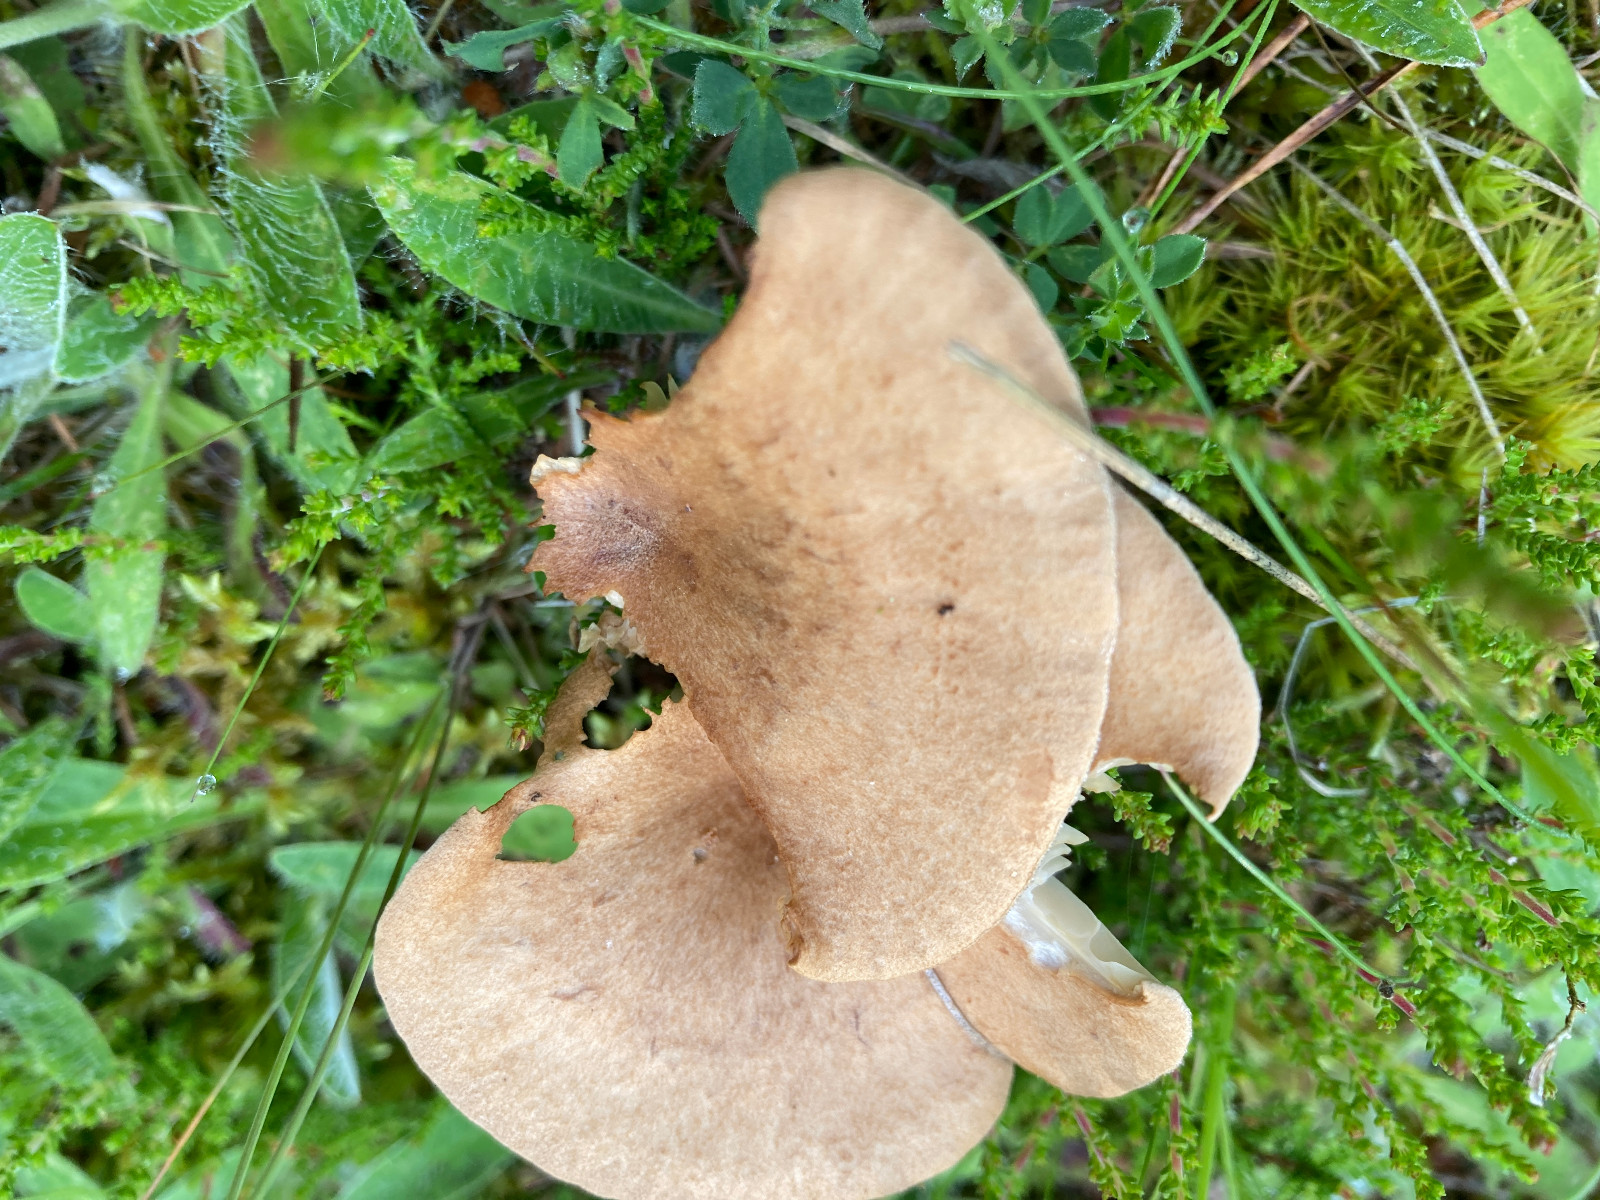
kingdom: Fungi
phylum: Basidiomycota
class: Agaricomycetes
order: Agaricales
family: Tricholomataceae
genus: Infundibulicybe
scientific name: Infundibulicybe squamulosa
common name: småskællet tragthat
